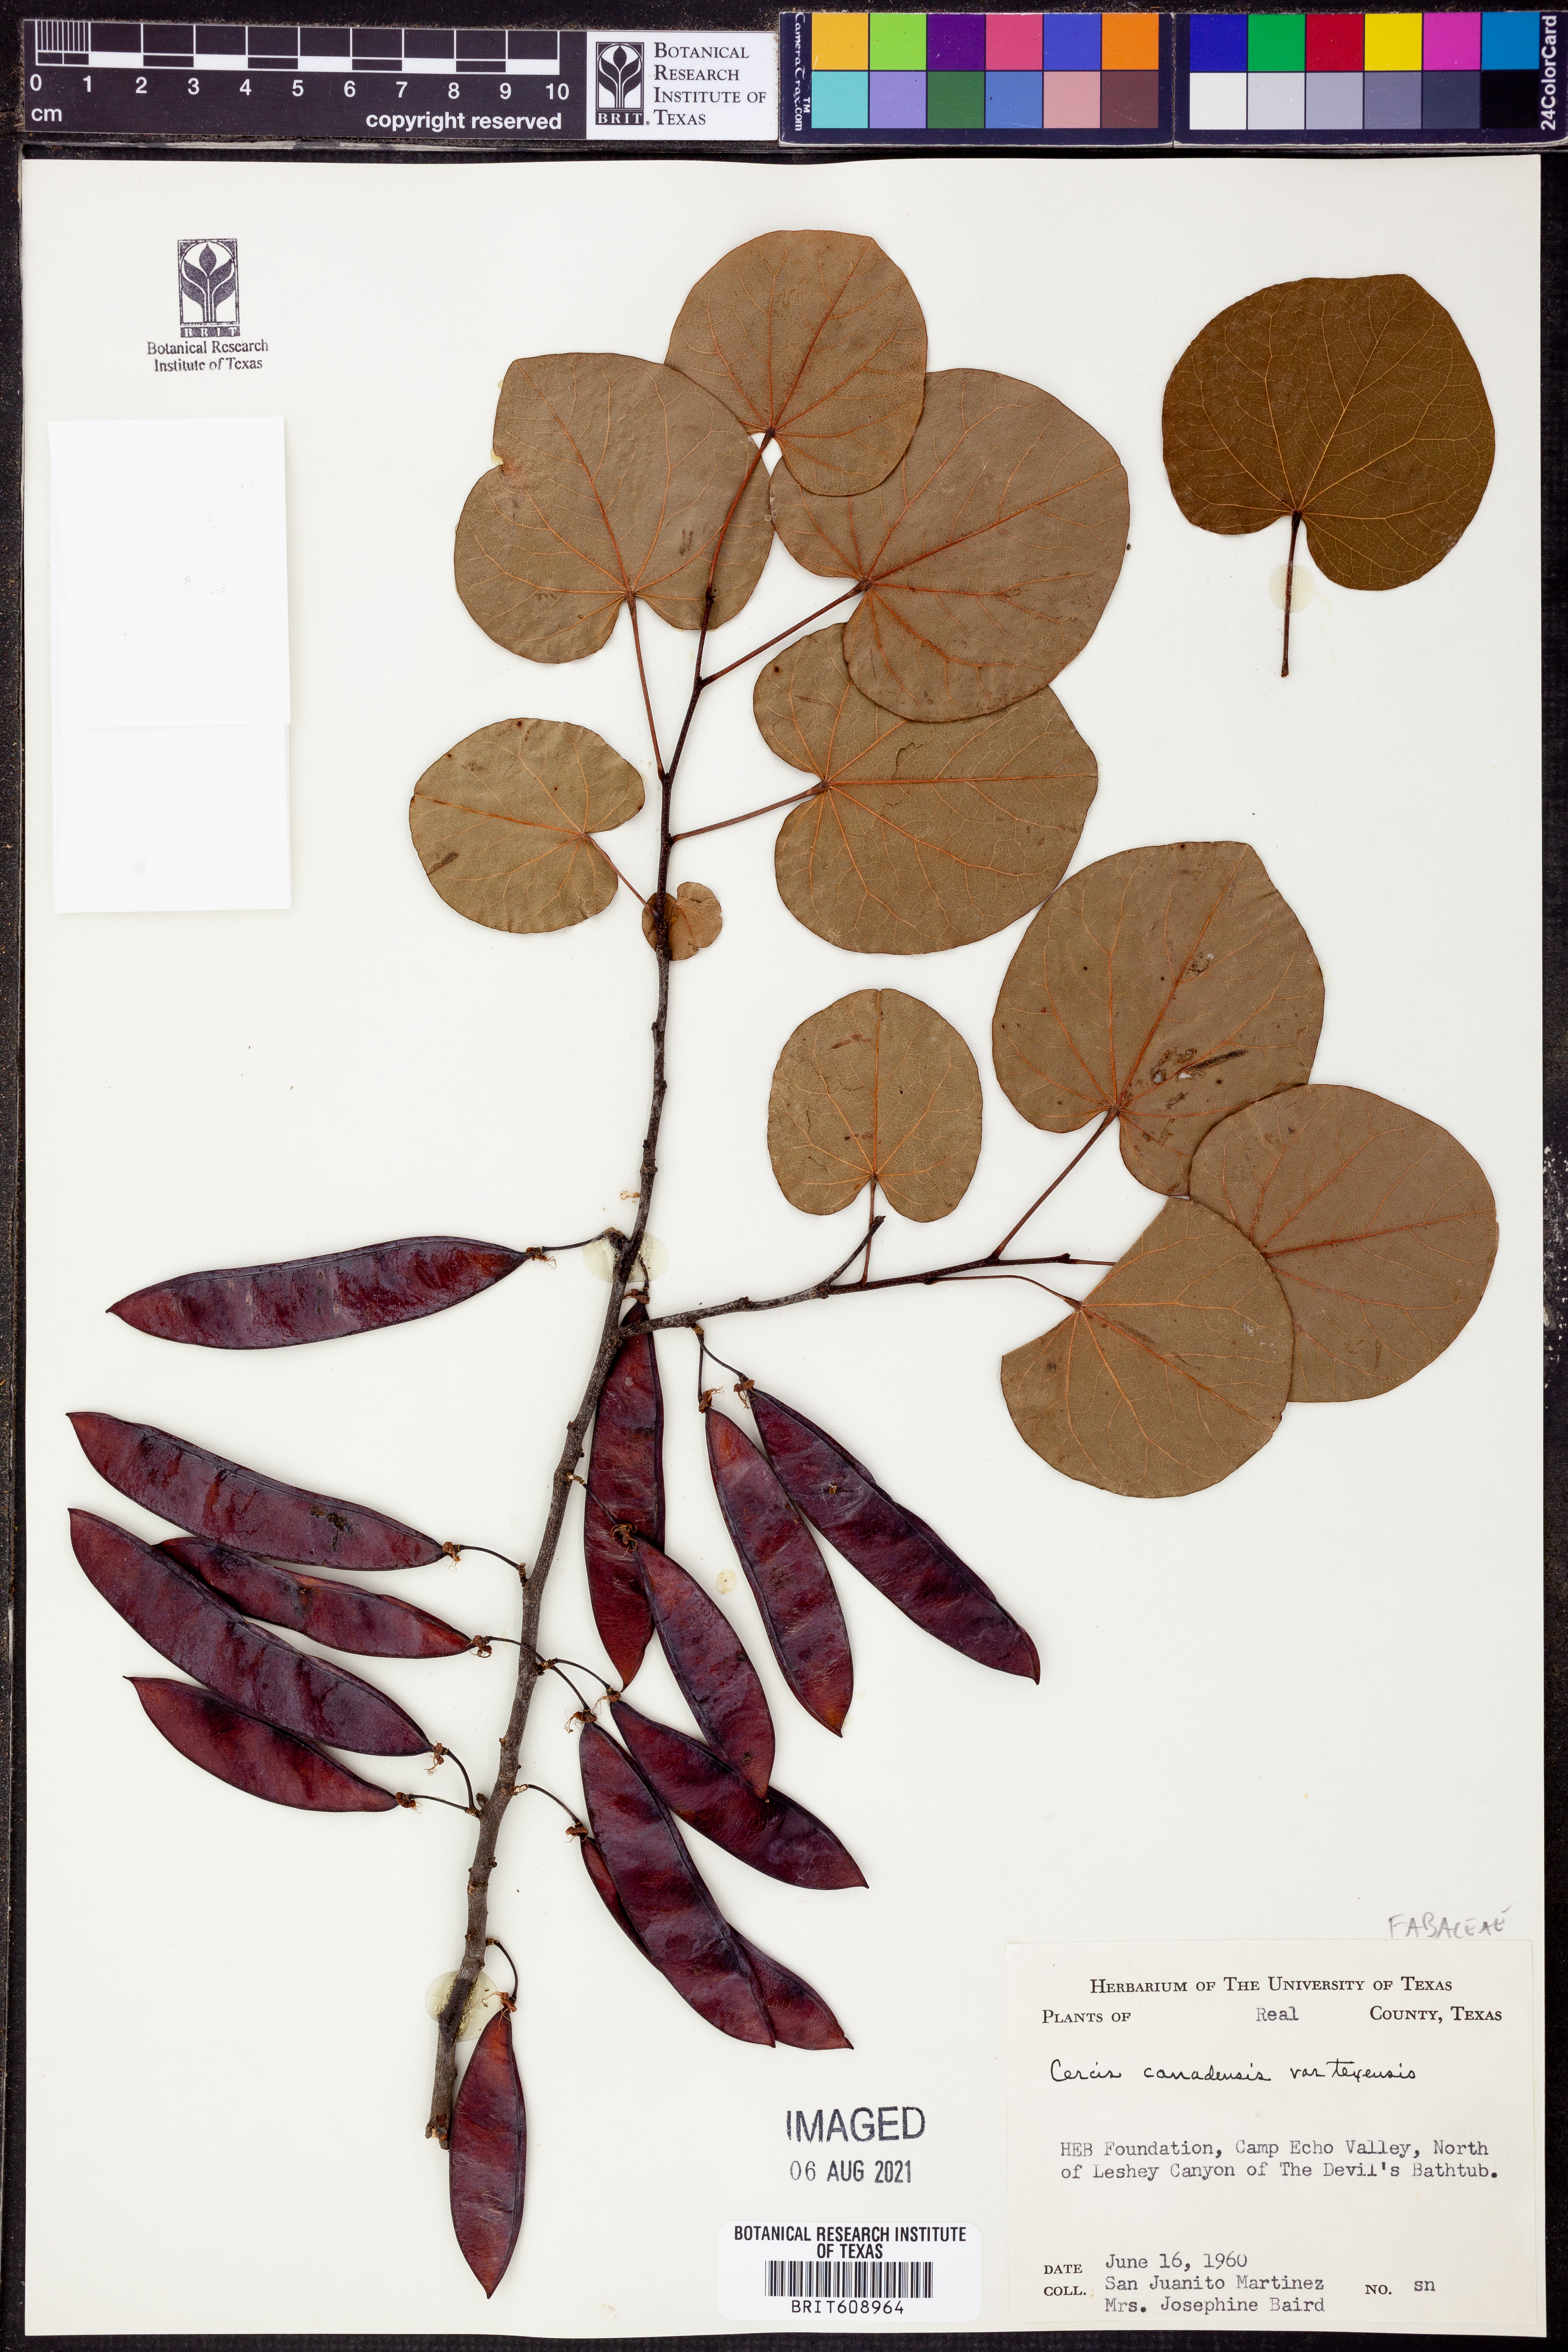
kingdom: Plantae
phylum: Tracheophyta
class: Magnoliopsida
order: Fabales
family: Fabaceae
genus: Cercis
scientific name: Cercis canadensis
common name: Eastern redbud
